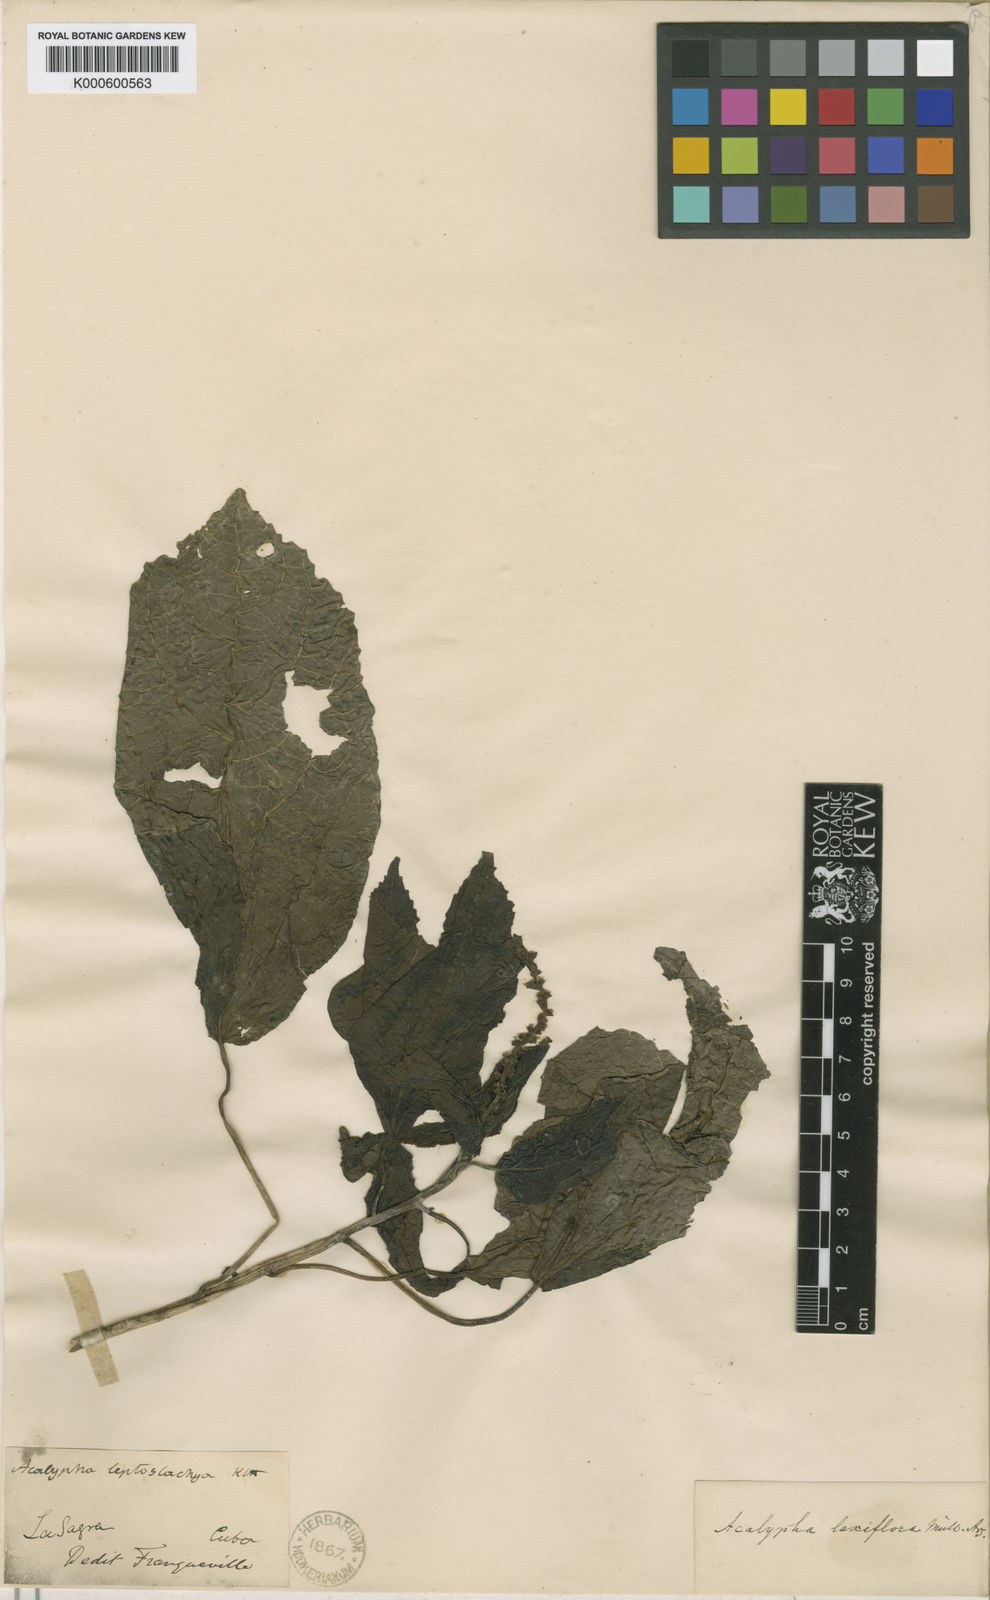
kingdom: Plantae
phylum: Tracheophyta
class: Magnoliopsida
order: Malpighiales
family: Euphorbiaceae
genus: Acalypha
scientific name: Acalypha
